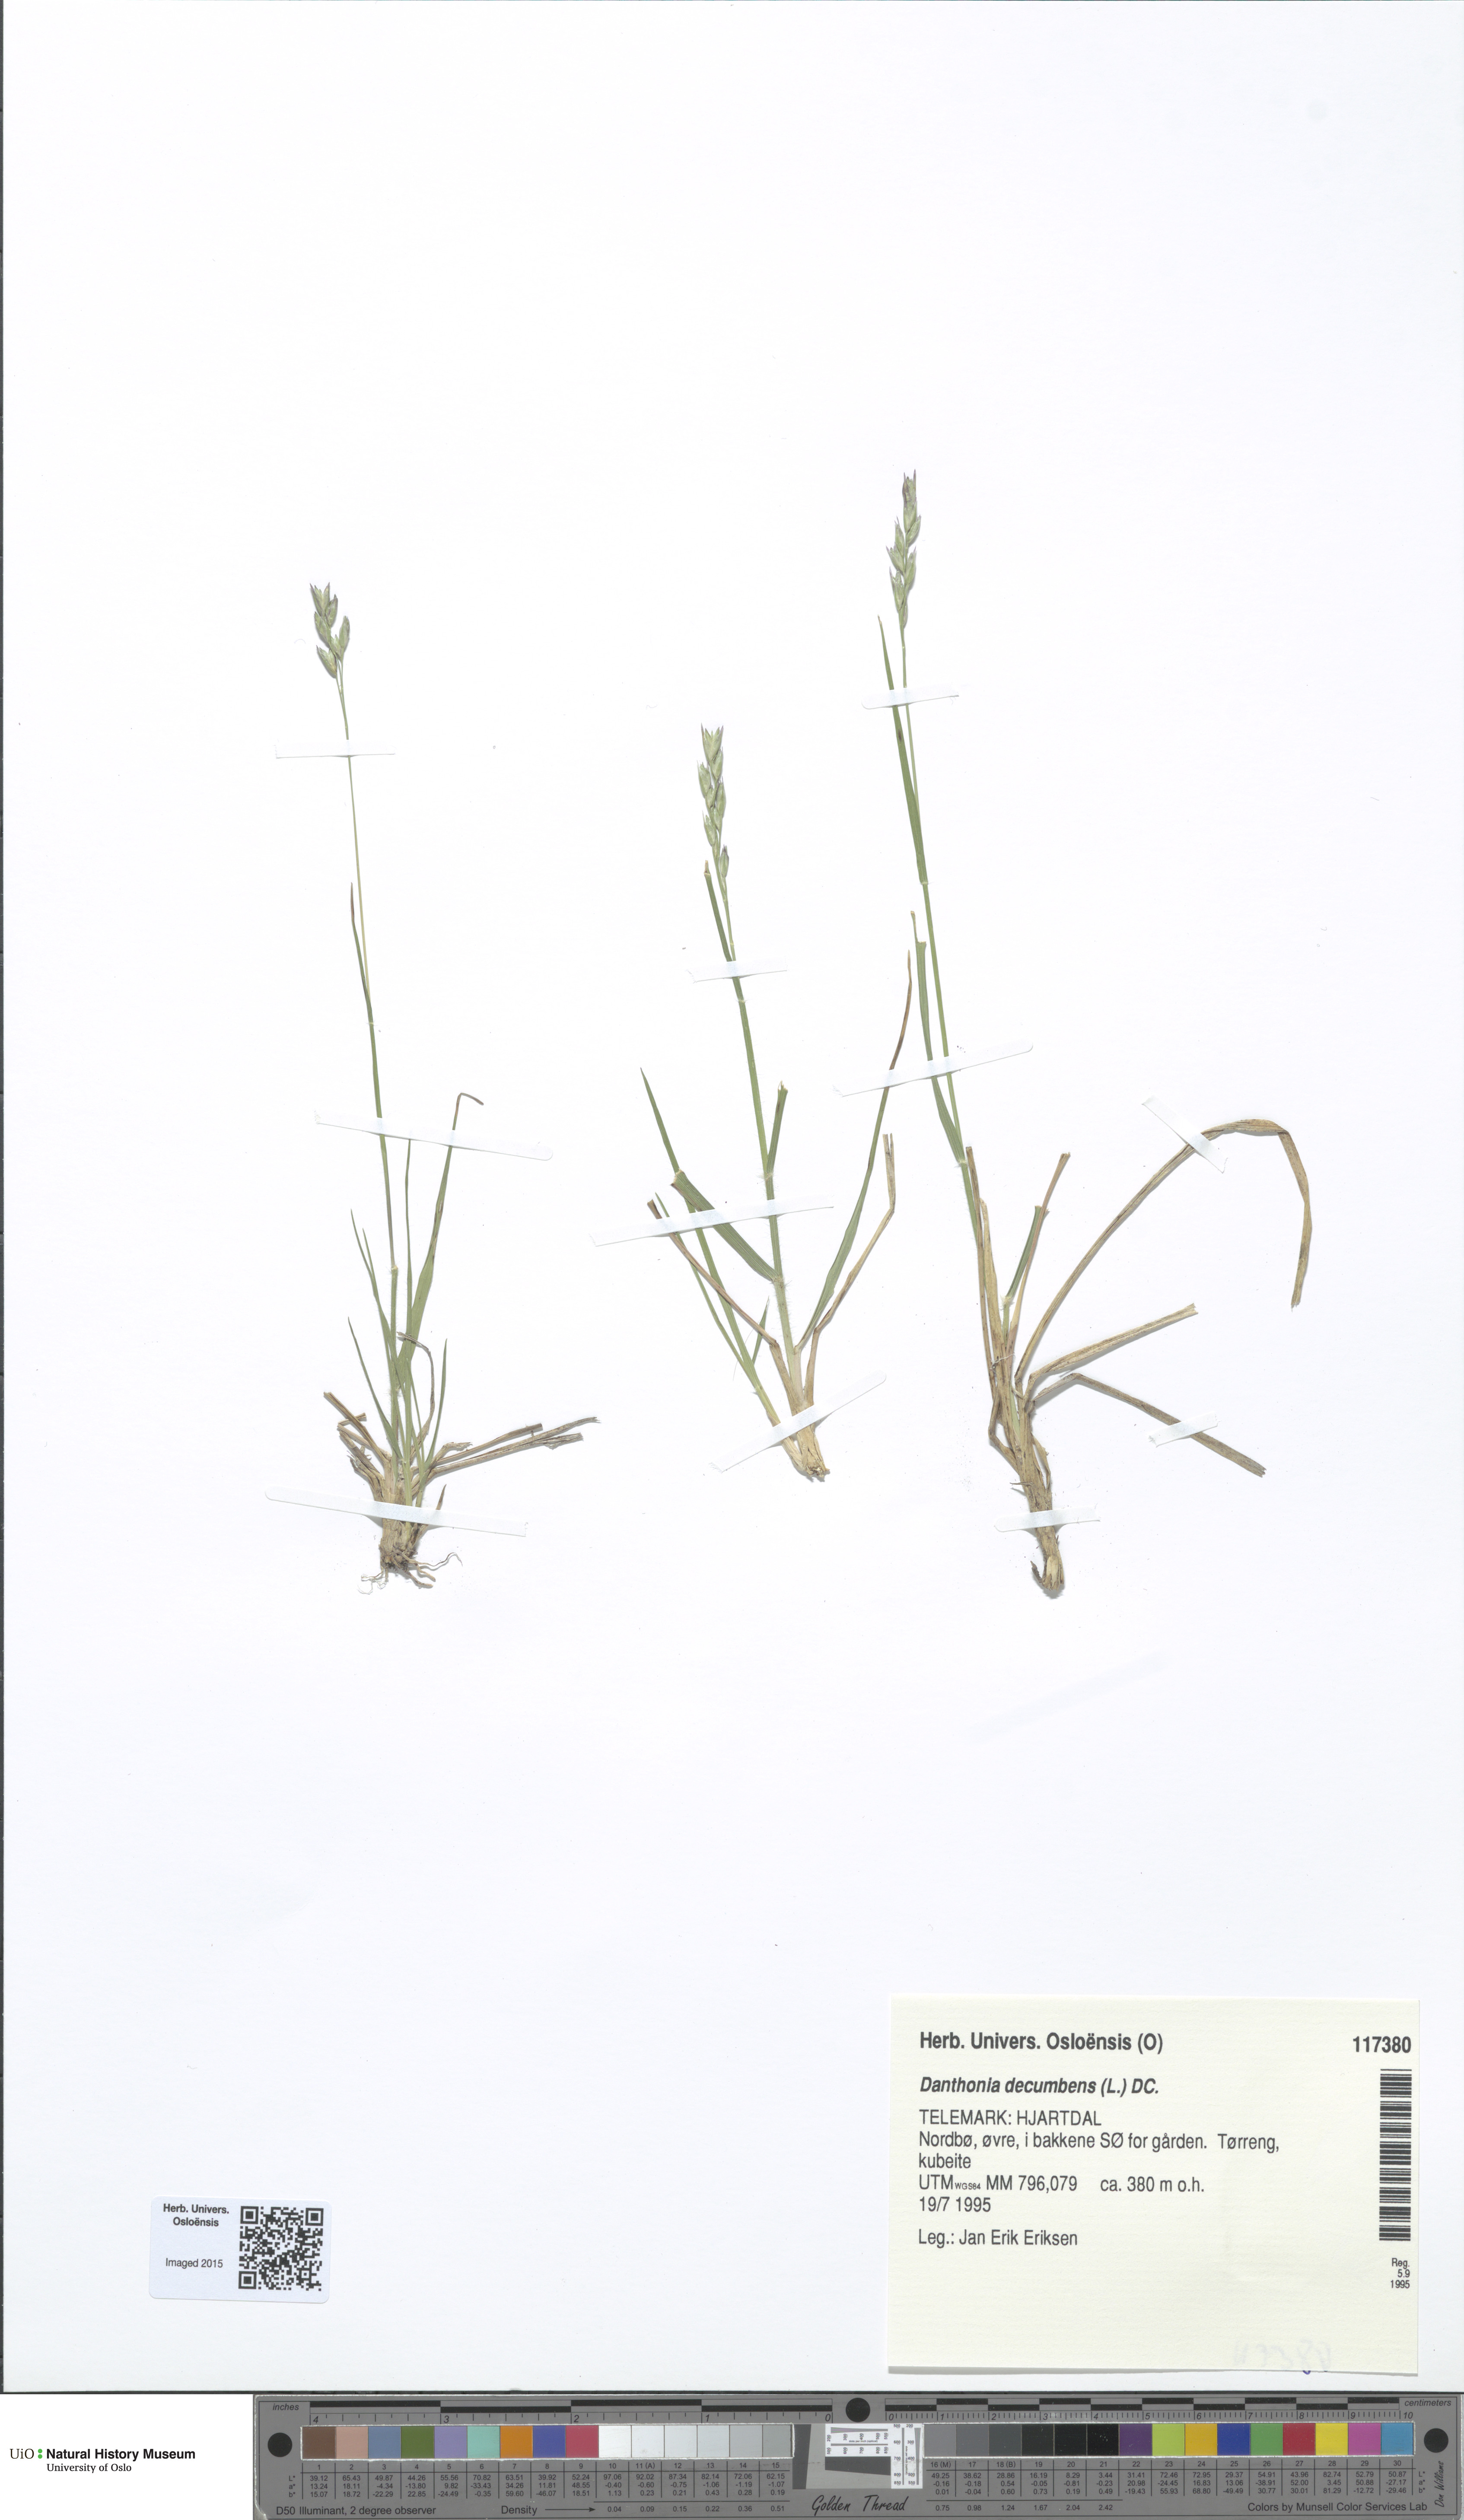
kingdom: Plantae
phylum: Tracheophyta
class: Liliopsida
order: Poales
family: Poaceae
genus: Danthonia
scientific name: Danthonia decumbens
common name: Common heathgrass
